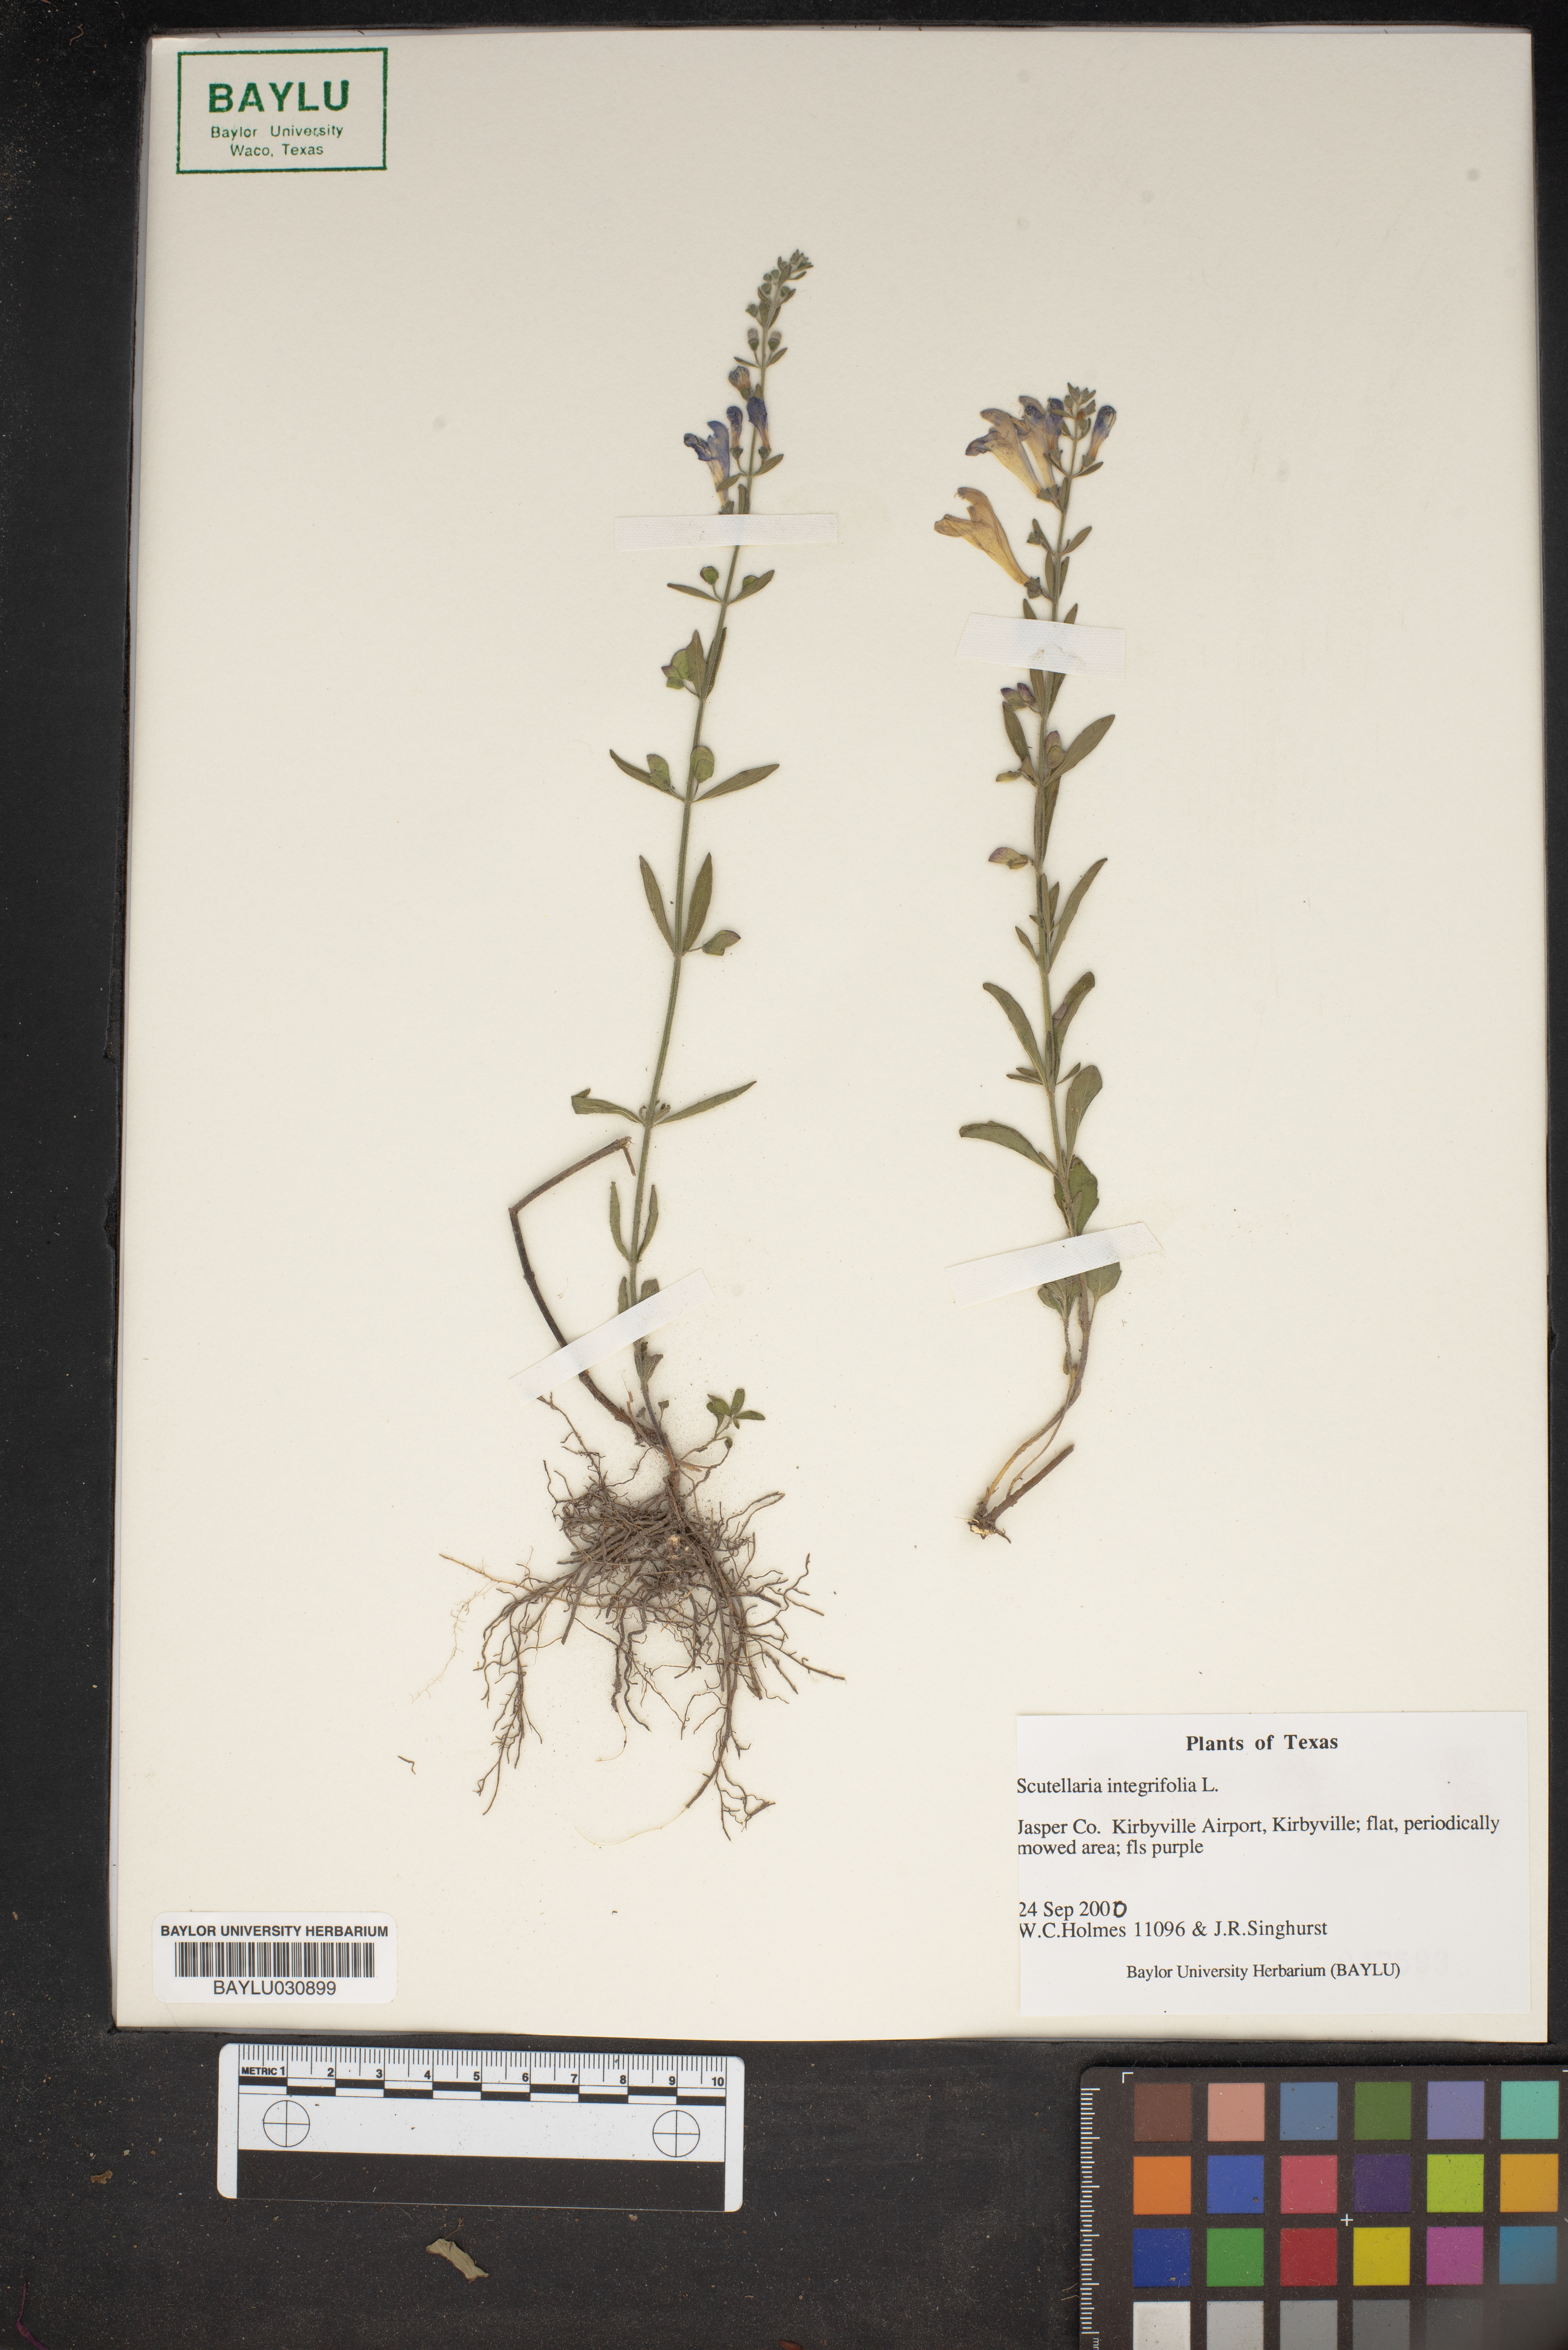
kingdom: Plantae
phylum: Tracheophyta
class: Magnoliopsida
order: Lamiales
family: Lamiaceae
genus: Scutellaria
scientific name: Scutellaria integrifolia
